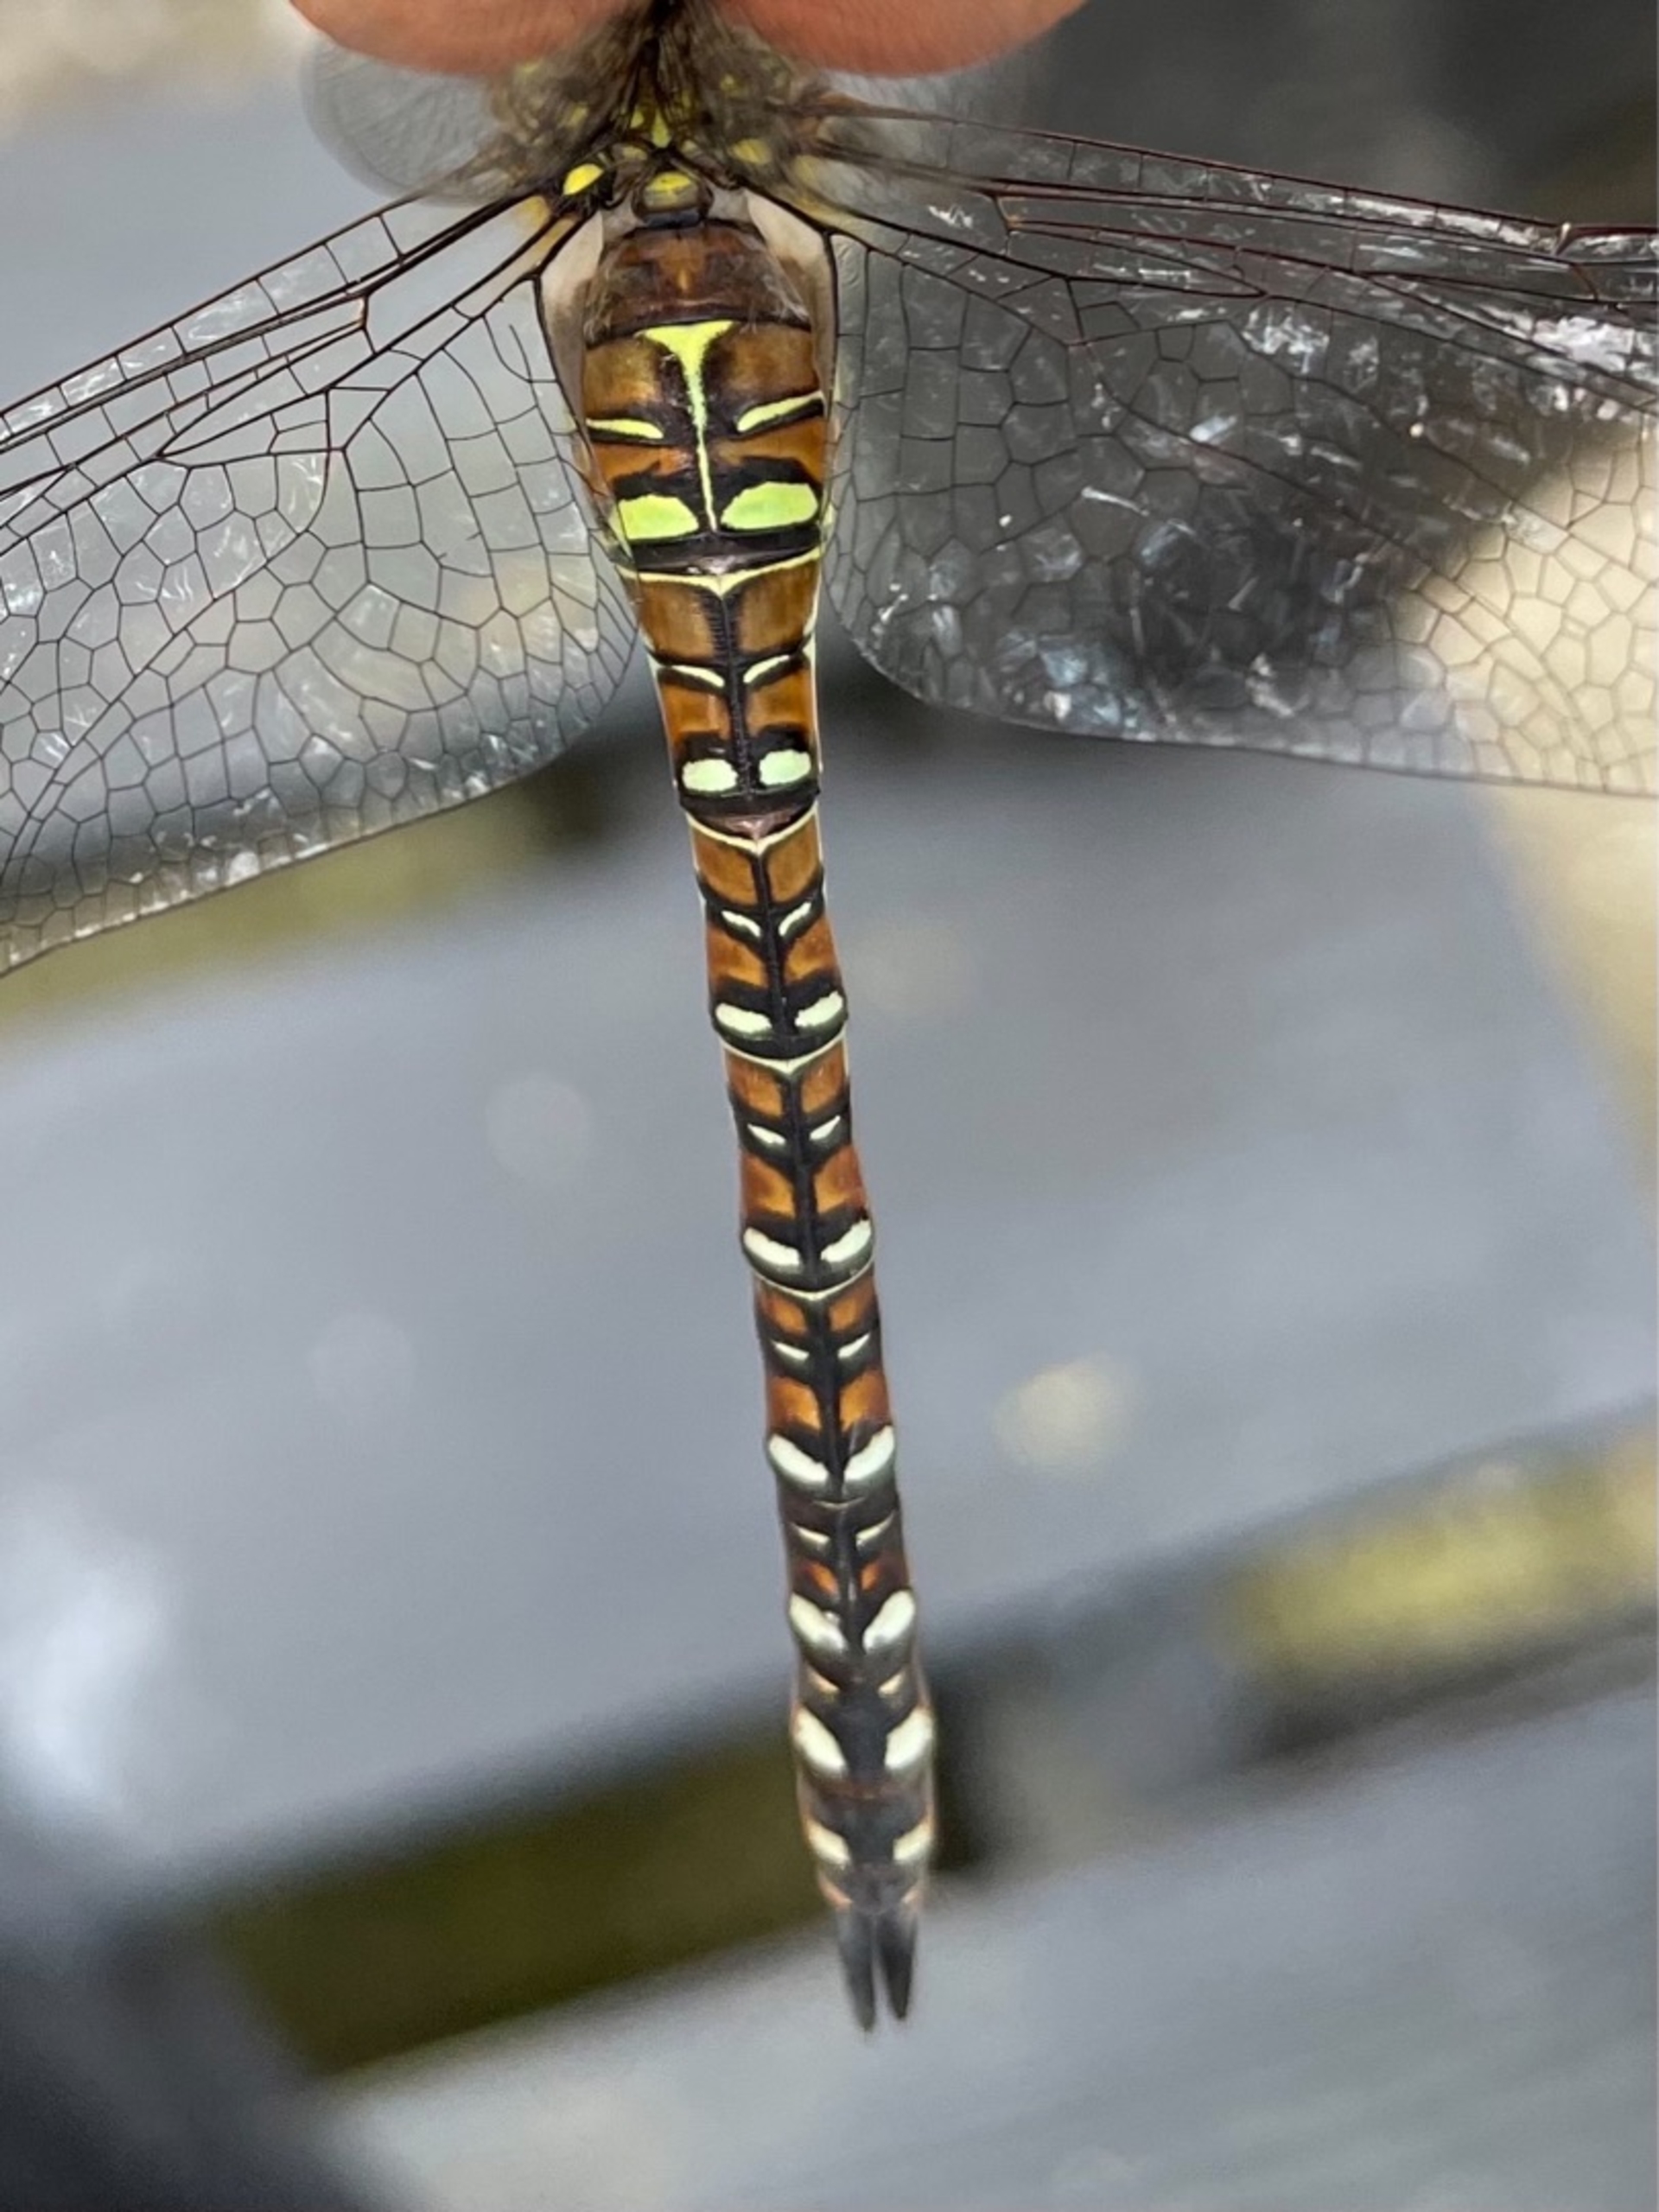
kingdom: Animalia
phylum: Arthropoda
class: Insecta
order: Odonata
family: Aeshnidae
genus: Aeshna
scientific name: Aeshna mixta
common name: Efterårs-mosaikguldsmed
